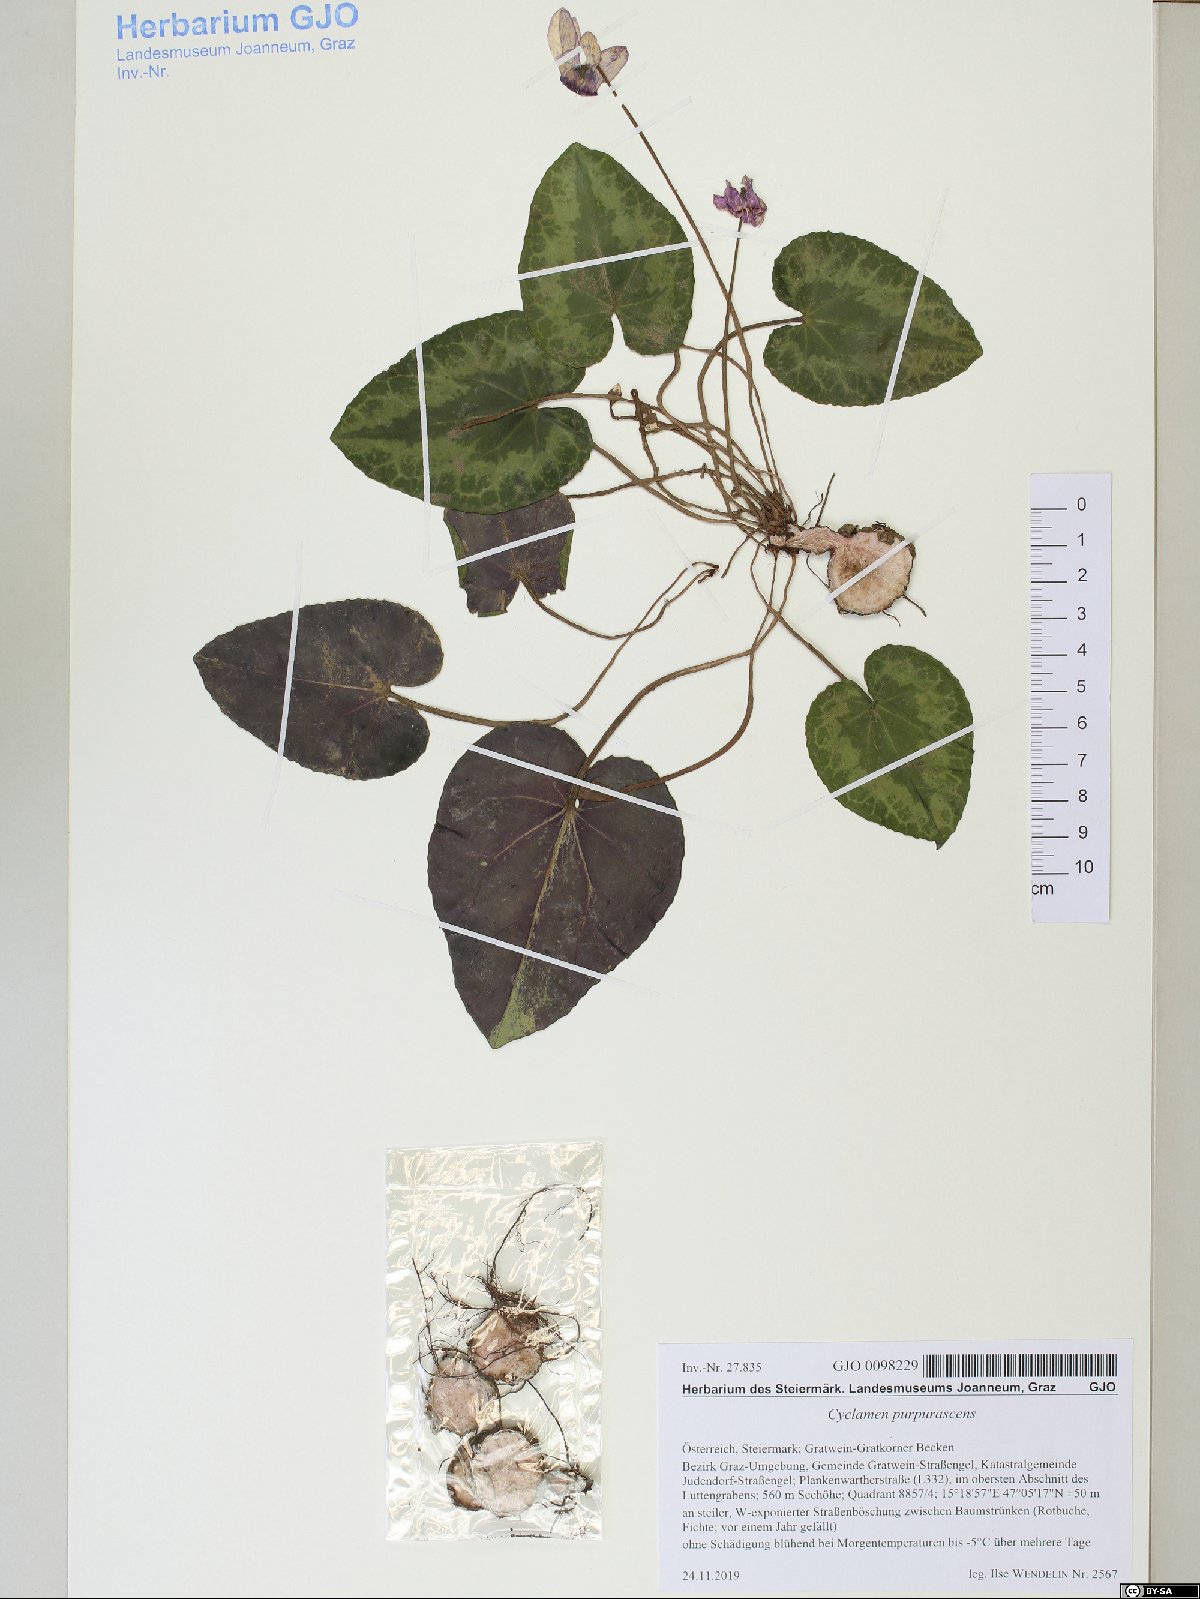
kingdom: Plantae
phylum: Tracheophyta
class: Magnoliopsida
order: Ericales
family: Primulaceae
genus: Cyclamen
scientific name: Cyclamen purpurascens
